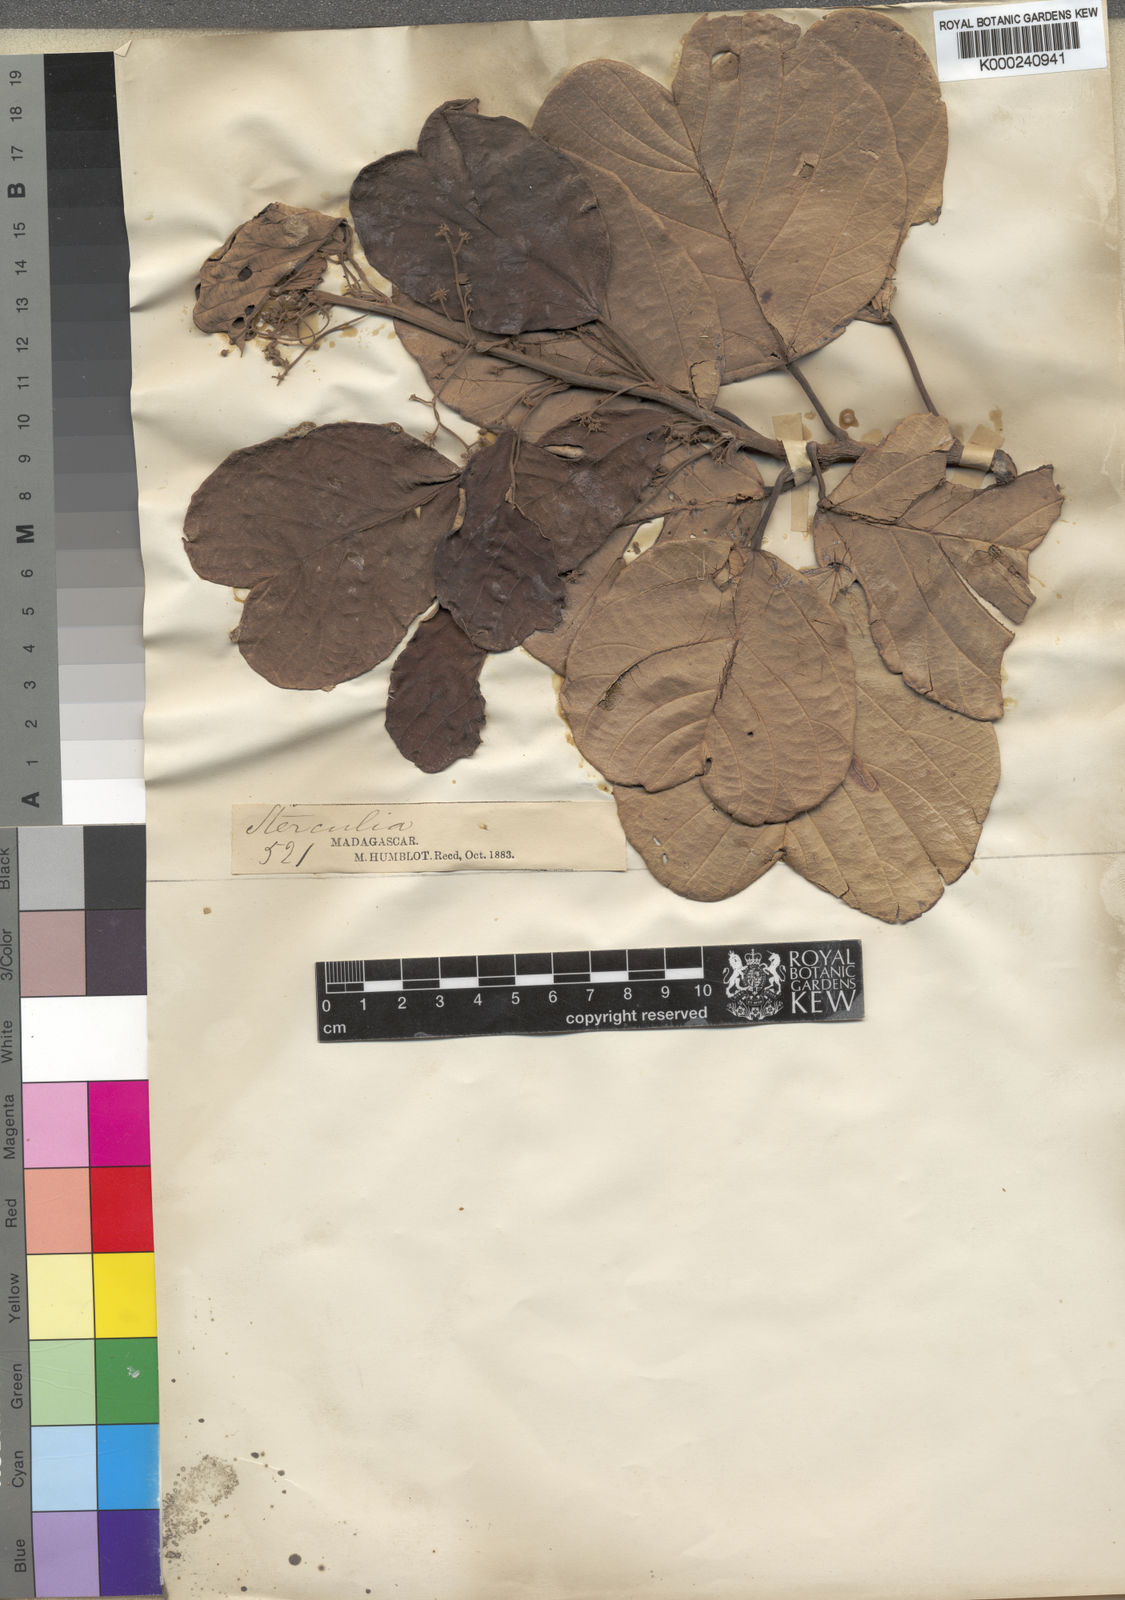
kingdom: Plantae
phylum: Tracheophyta
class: Magnoliopsida
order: Malvales
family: Malvaceae
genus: Sterculia
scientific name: Sterculia tavia
